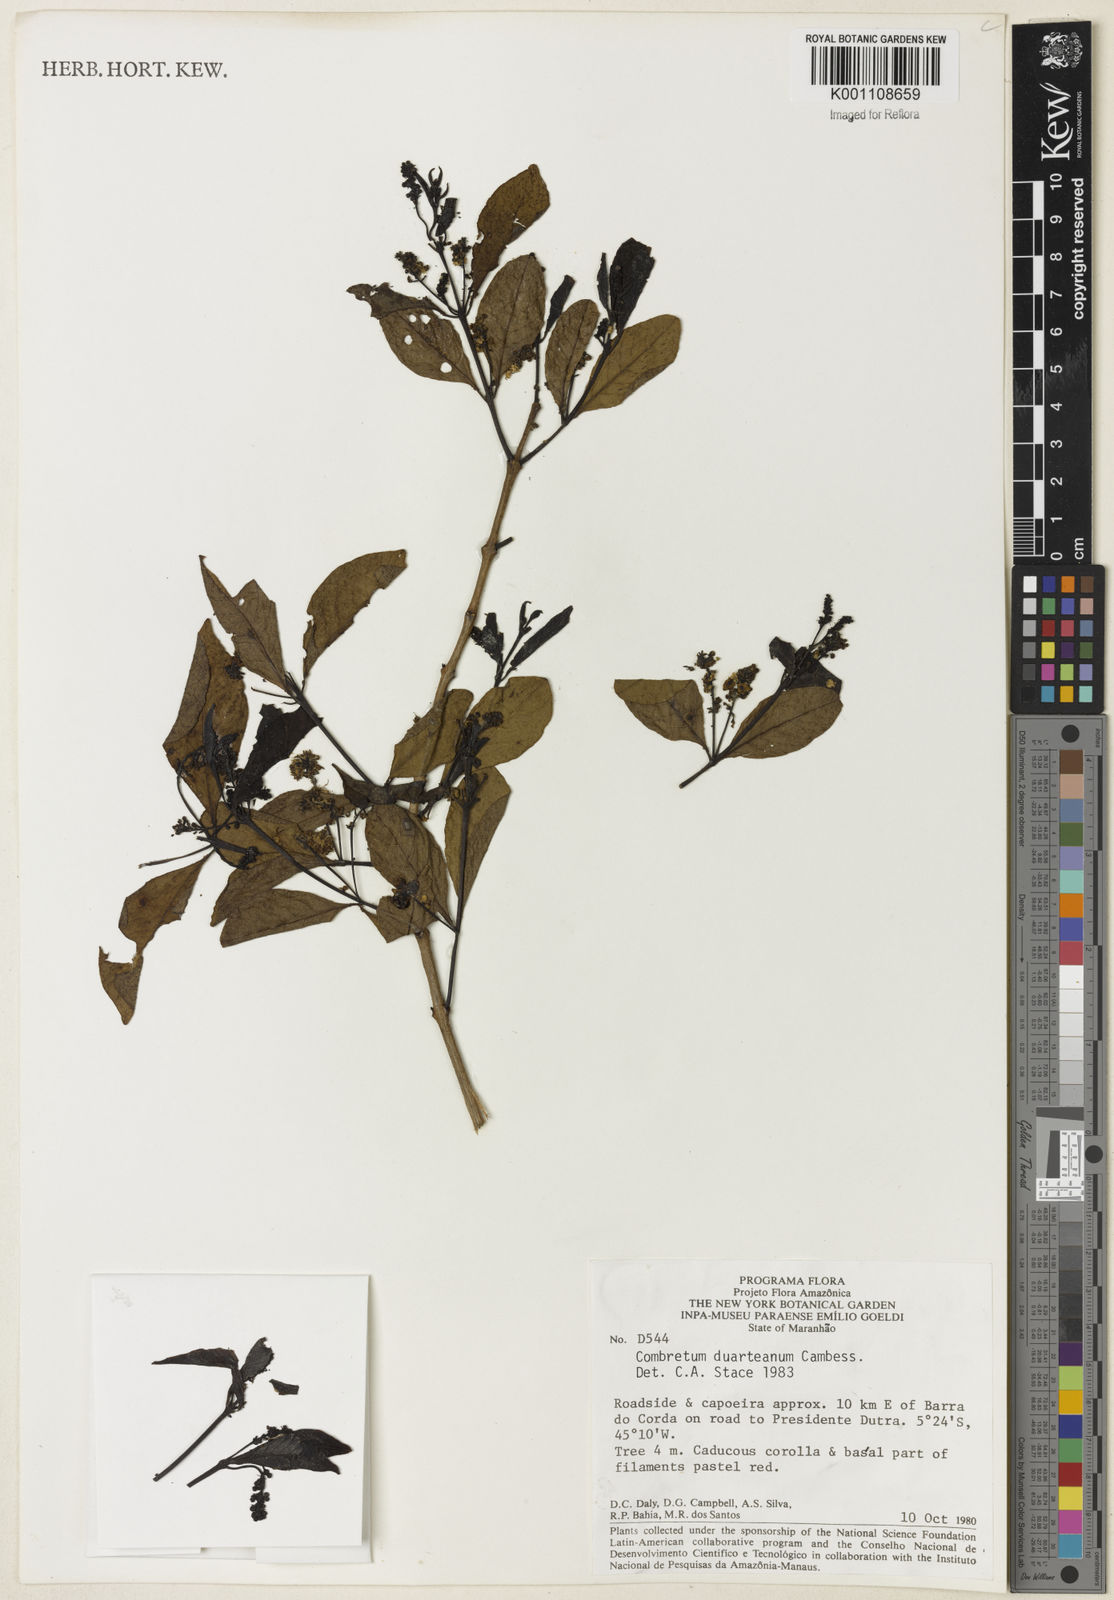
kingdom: Plantae
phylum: Tracheophyta
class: Magnoliopsida
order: Myrtales
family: Combretaceae
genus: Combretum
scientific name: Combretum duarteanum
